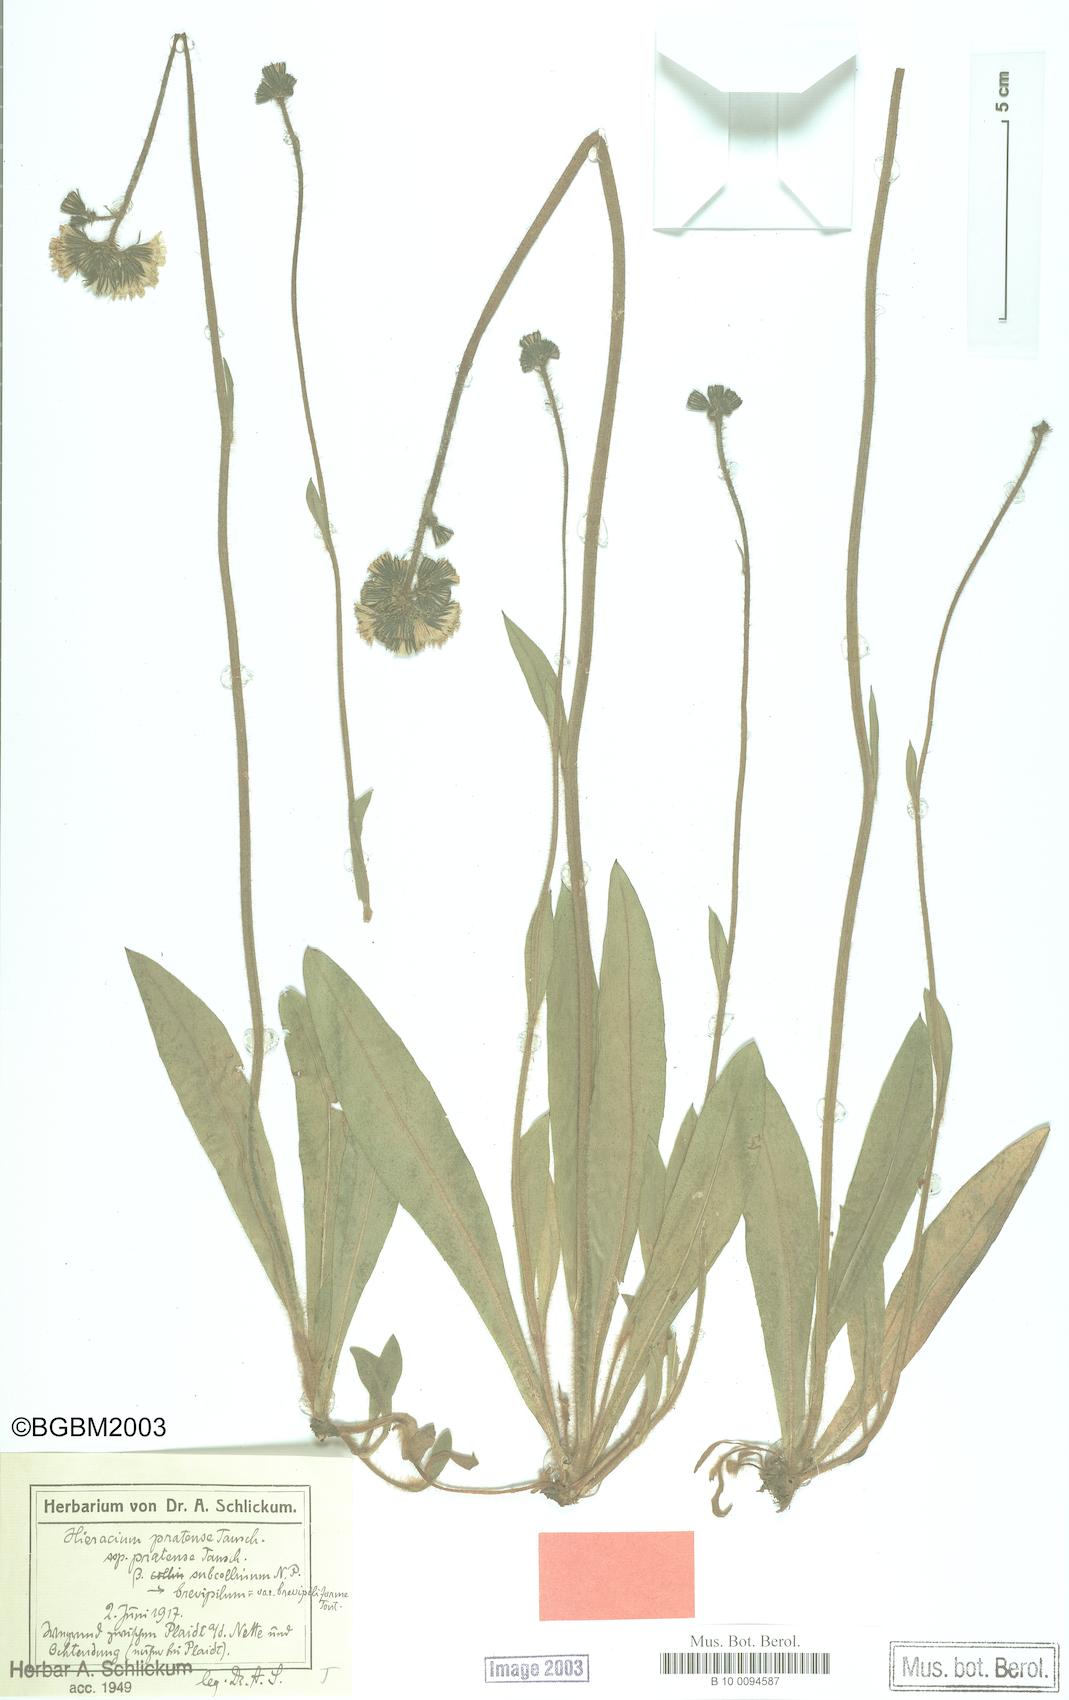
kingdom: Plantae
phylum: Tracheophyta
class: Magnoliopsida
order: Asterales
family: Asteraceae
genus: Pilosella
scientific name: Pilosella caespitosa
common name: Yellow fox-and-cubs
